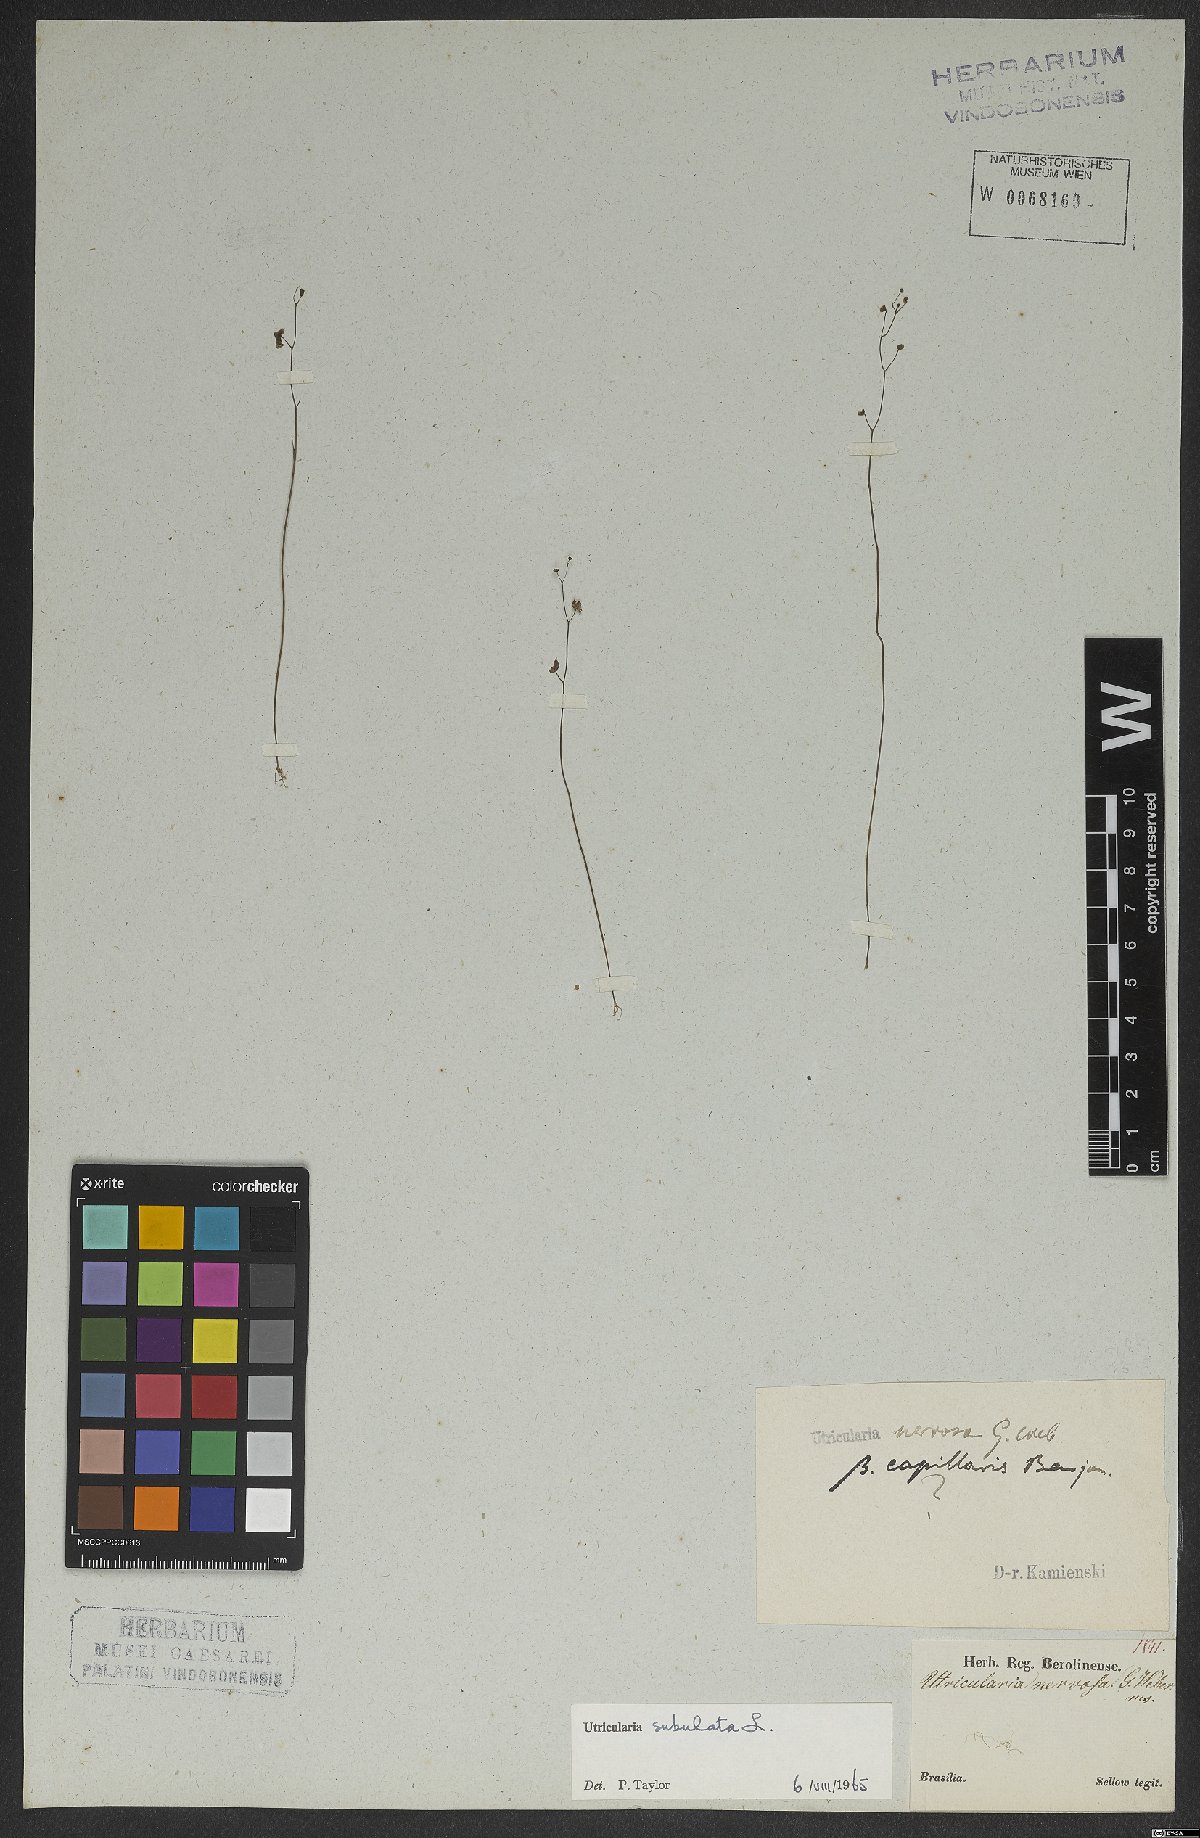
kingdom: Plantae
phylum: Tracheophyta
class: Magnoliopsida
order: Lamiales
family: Lentibulariaceae
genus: Utricularia
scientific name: Utricularia subulata
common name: Tiny bladderwort
